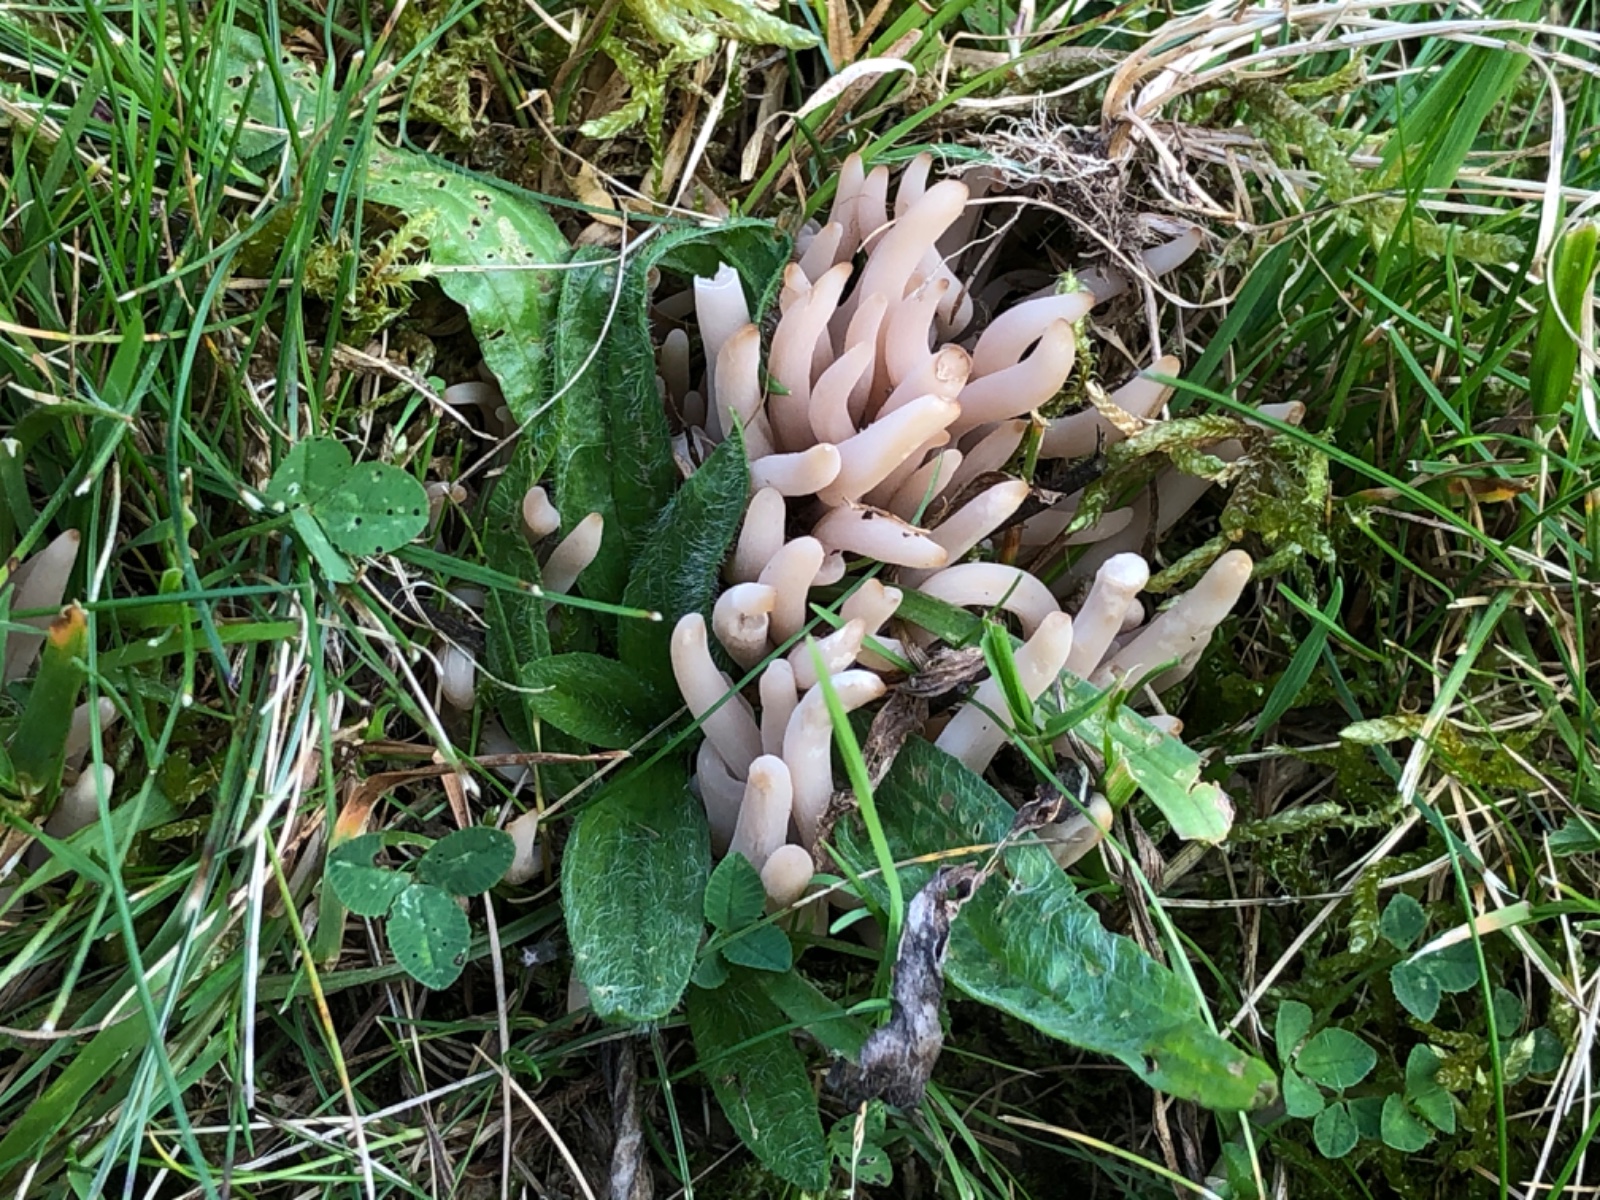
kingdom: Fungi
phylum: Basidiomycota
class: Agaricomycetes
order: Agaricales
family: Clavariaceae
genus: Clavaria
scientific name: Clavaria fumosa
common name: røggrå køllesvamp
